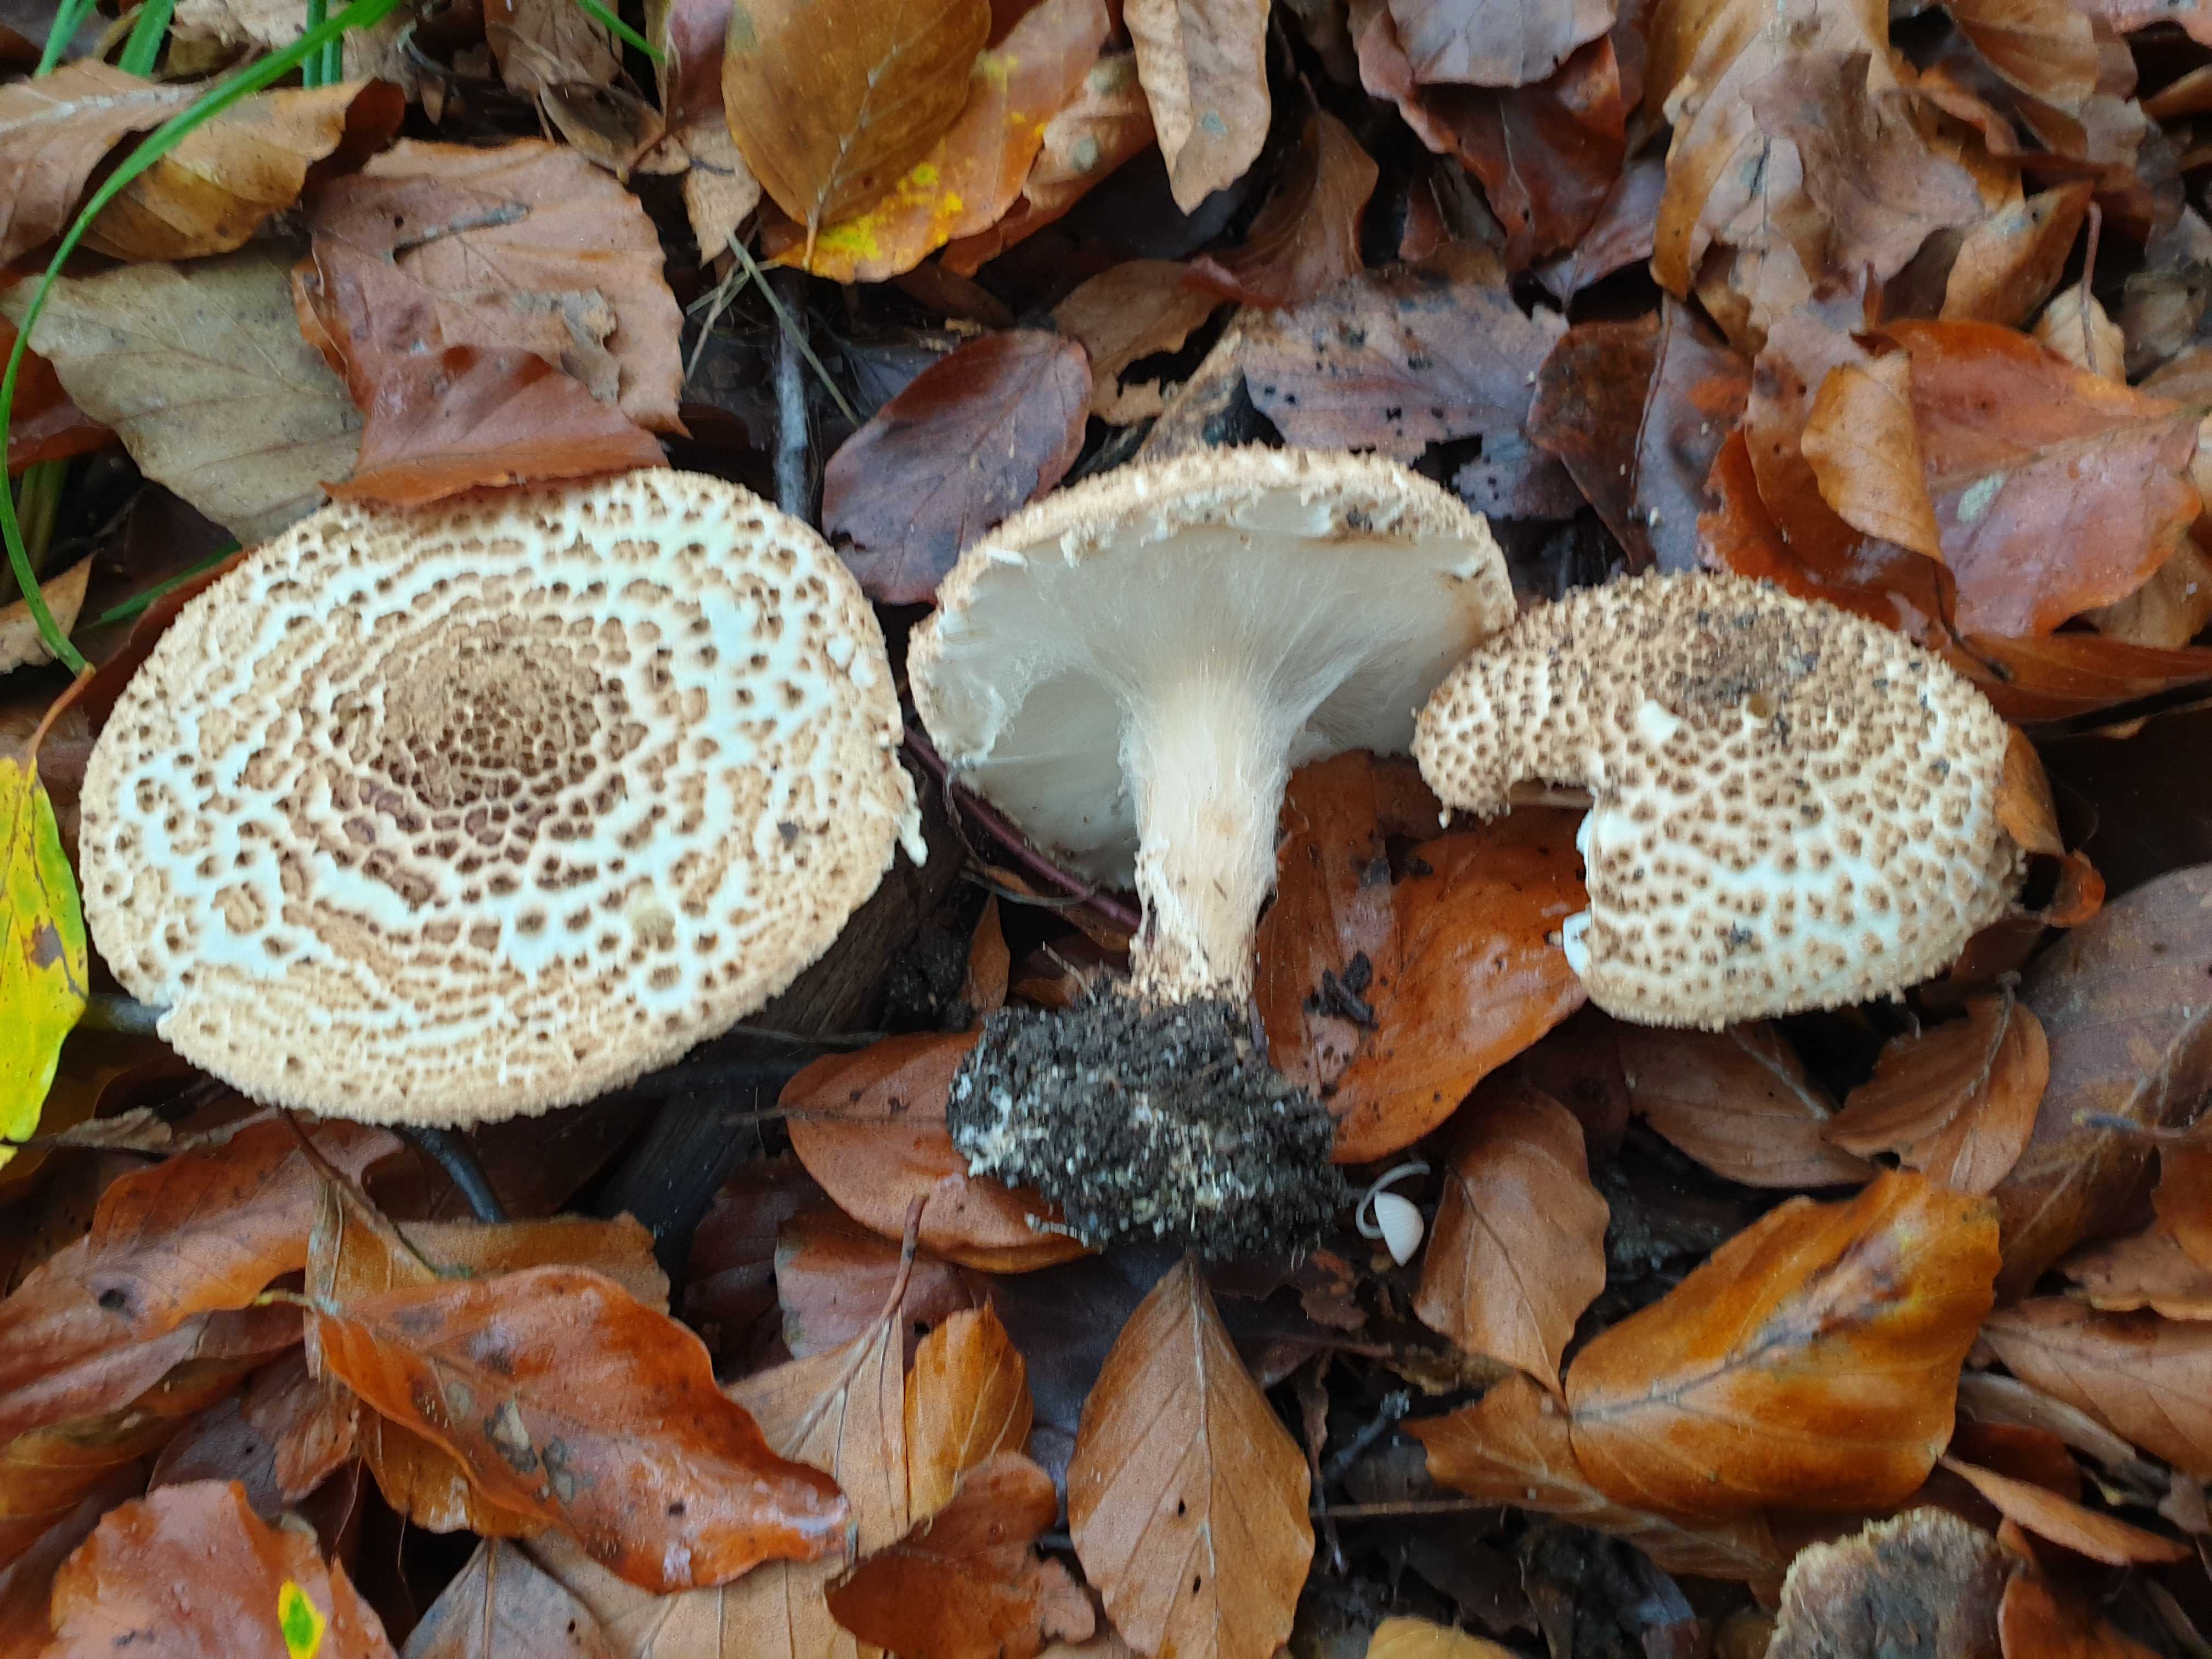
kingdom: Fungi
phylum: Basidiomycota
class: Agaricomycetes
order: Agaricales
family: Agaricaceae
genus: Echinoderma
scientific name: Echinoderma asperum
